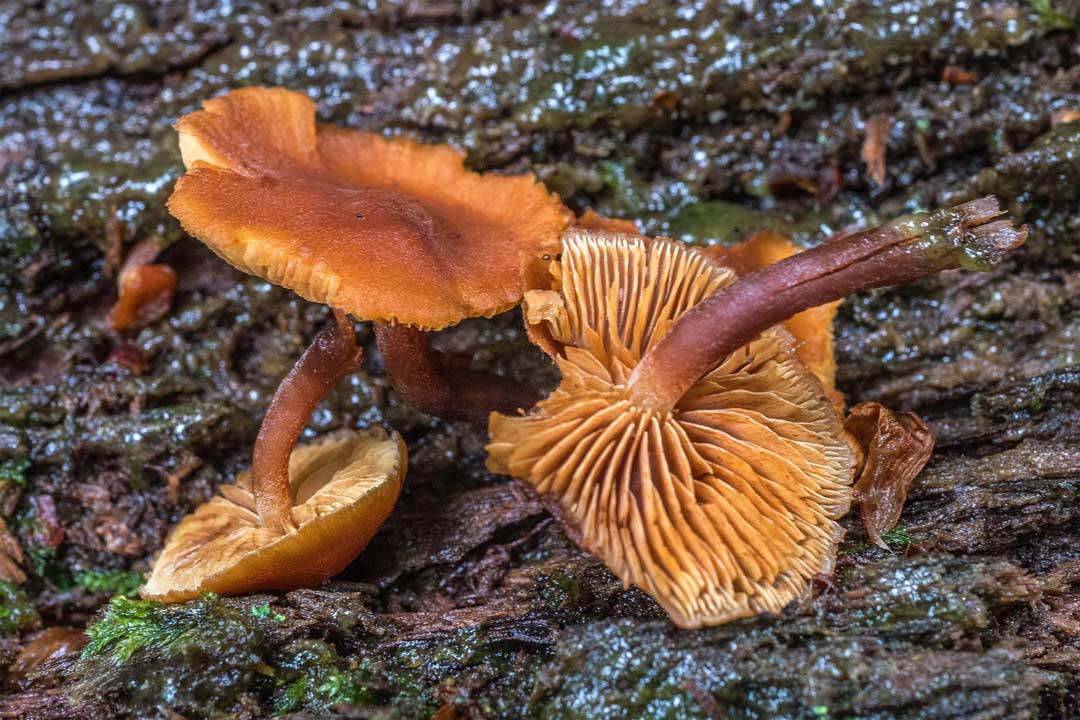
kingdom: Fungi
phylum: Basidiomycota
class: Agaricomycetes
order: Agaricales
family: Hymenogastraceae
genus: Gymnopilus
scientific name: Gymnopilus
